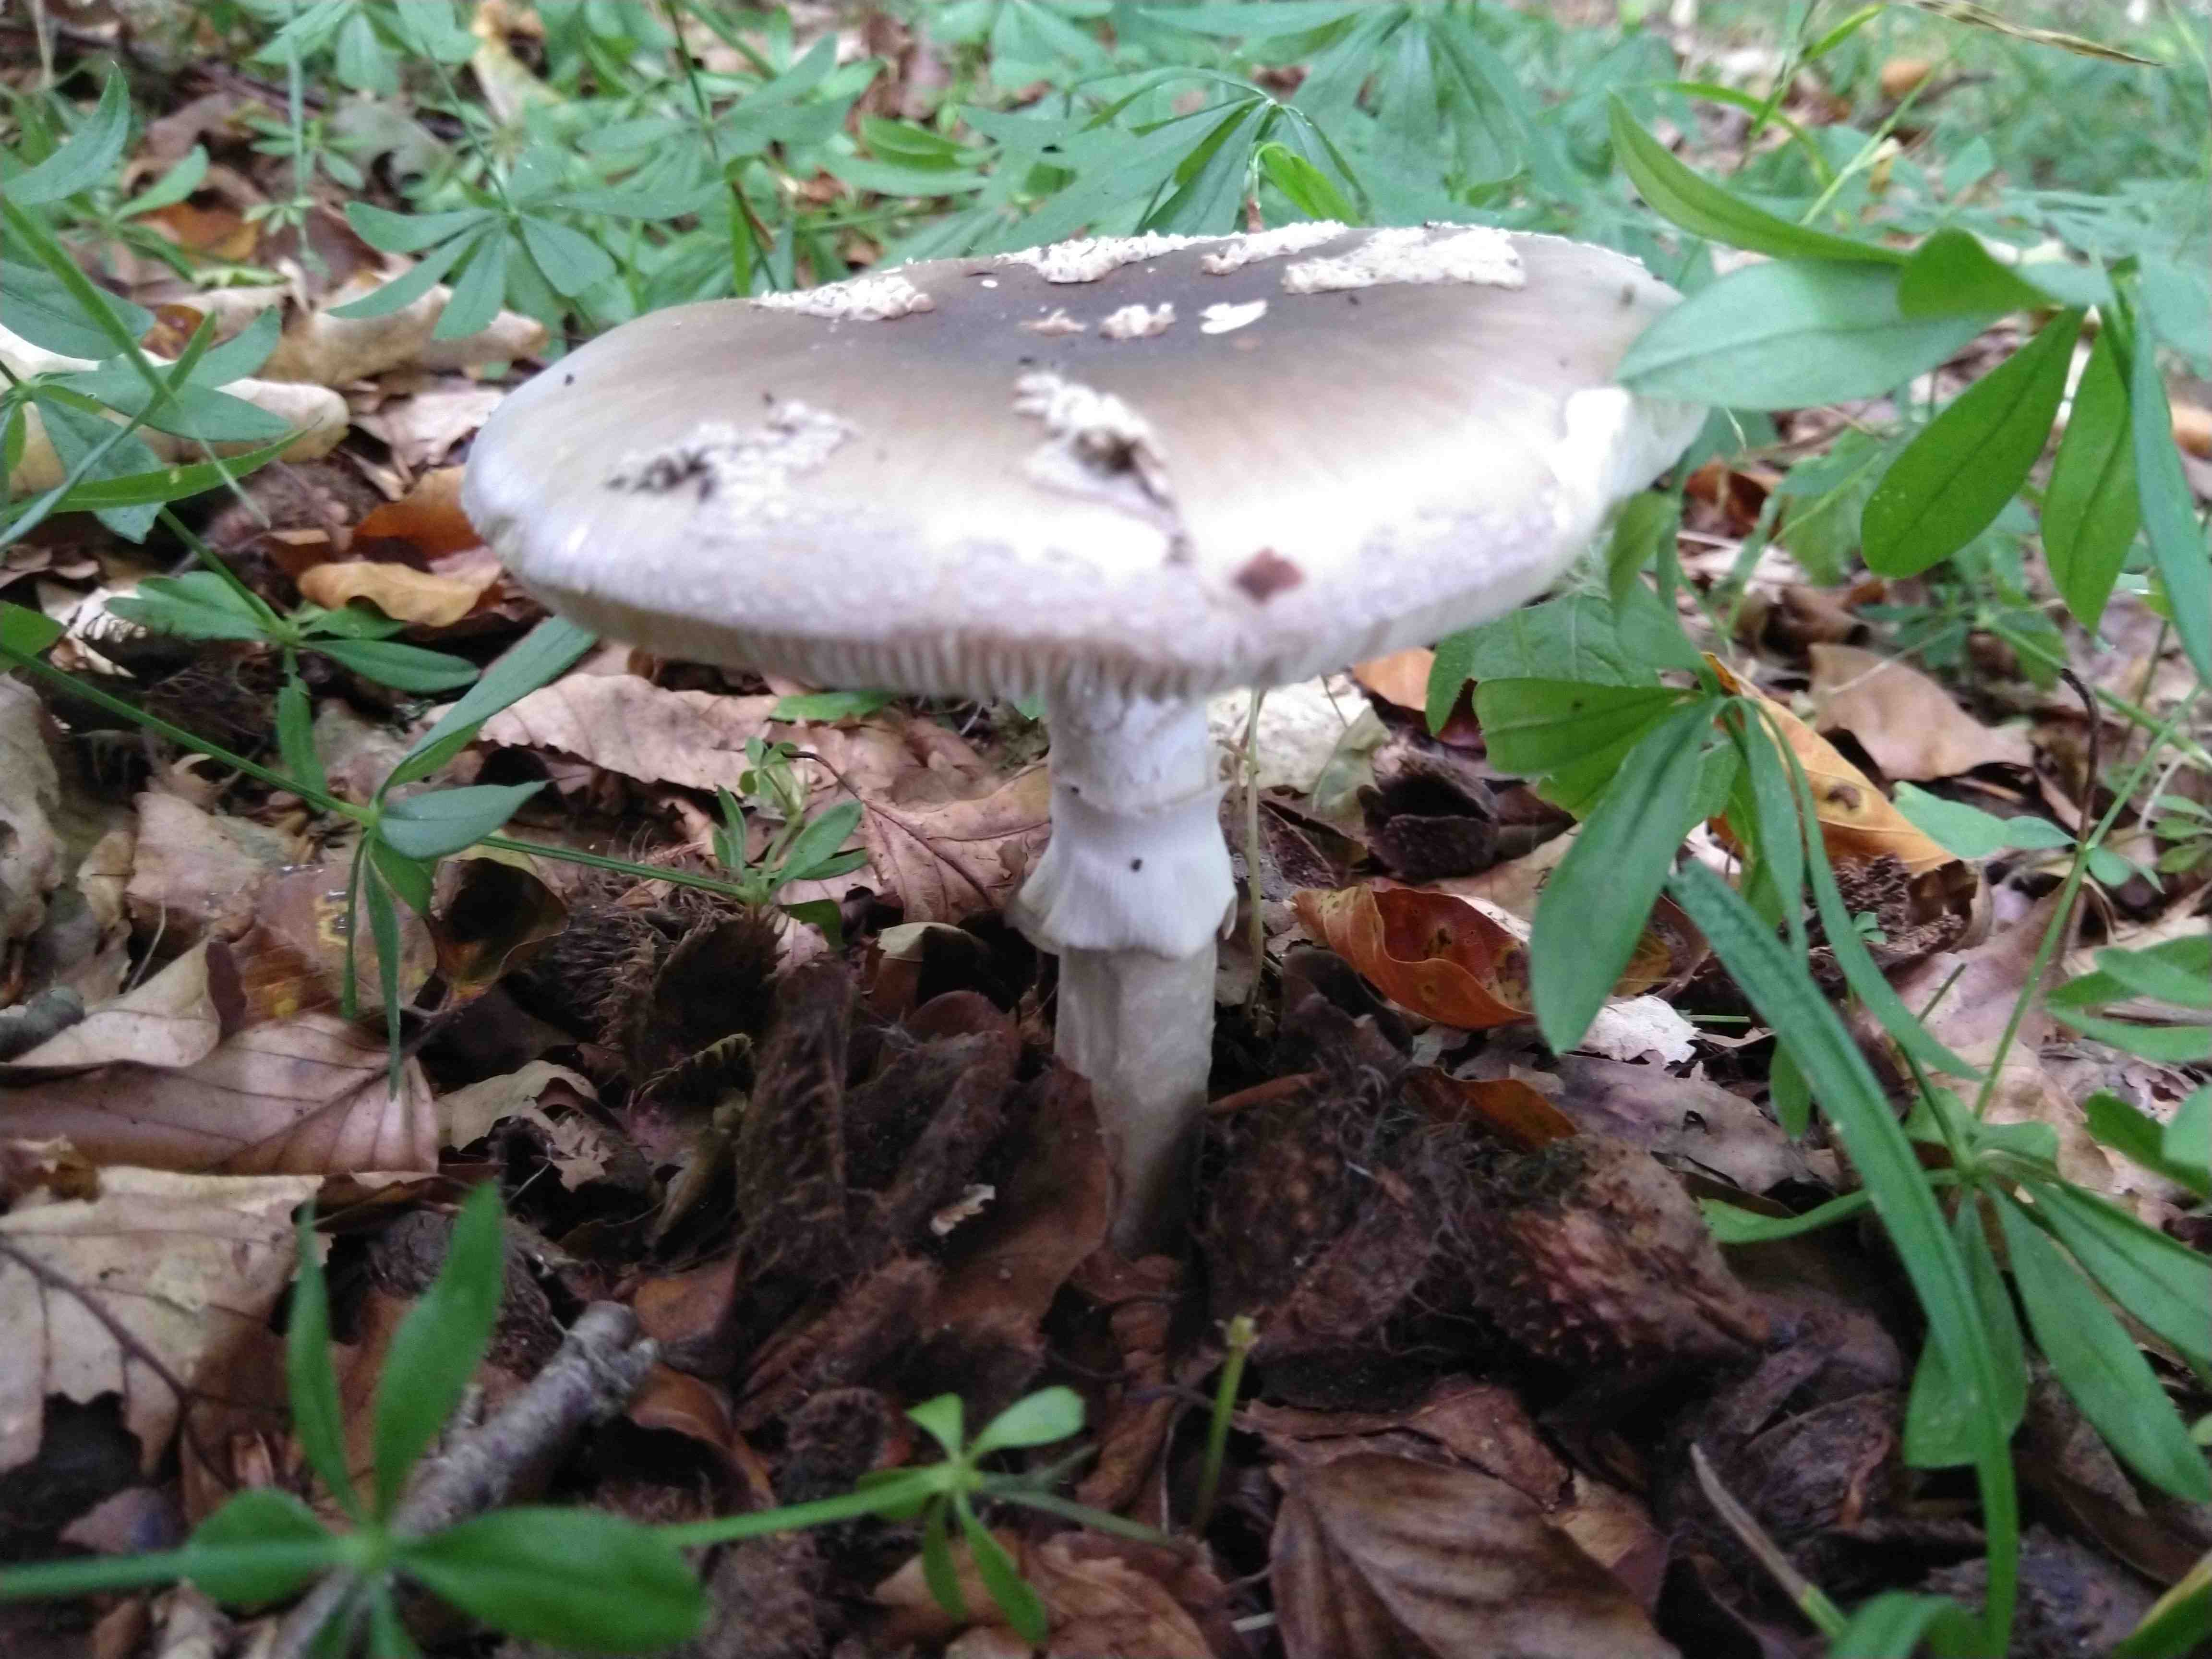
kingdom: Fungi
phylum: Basidiomycota
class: Agaricomycetes
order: Agaricales
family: Amanitaceae
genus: Amanita
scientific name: Amanita
